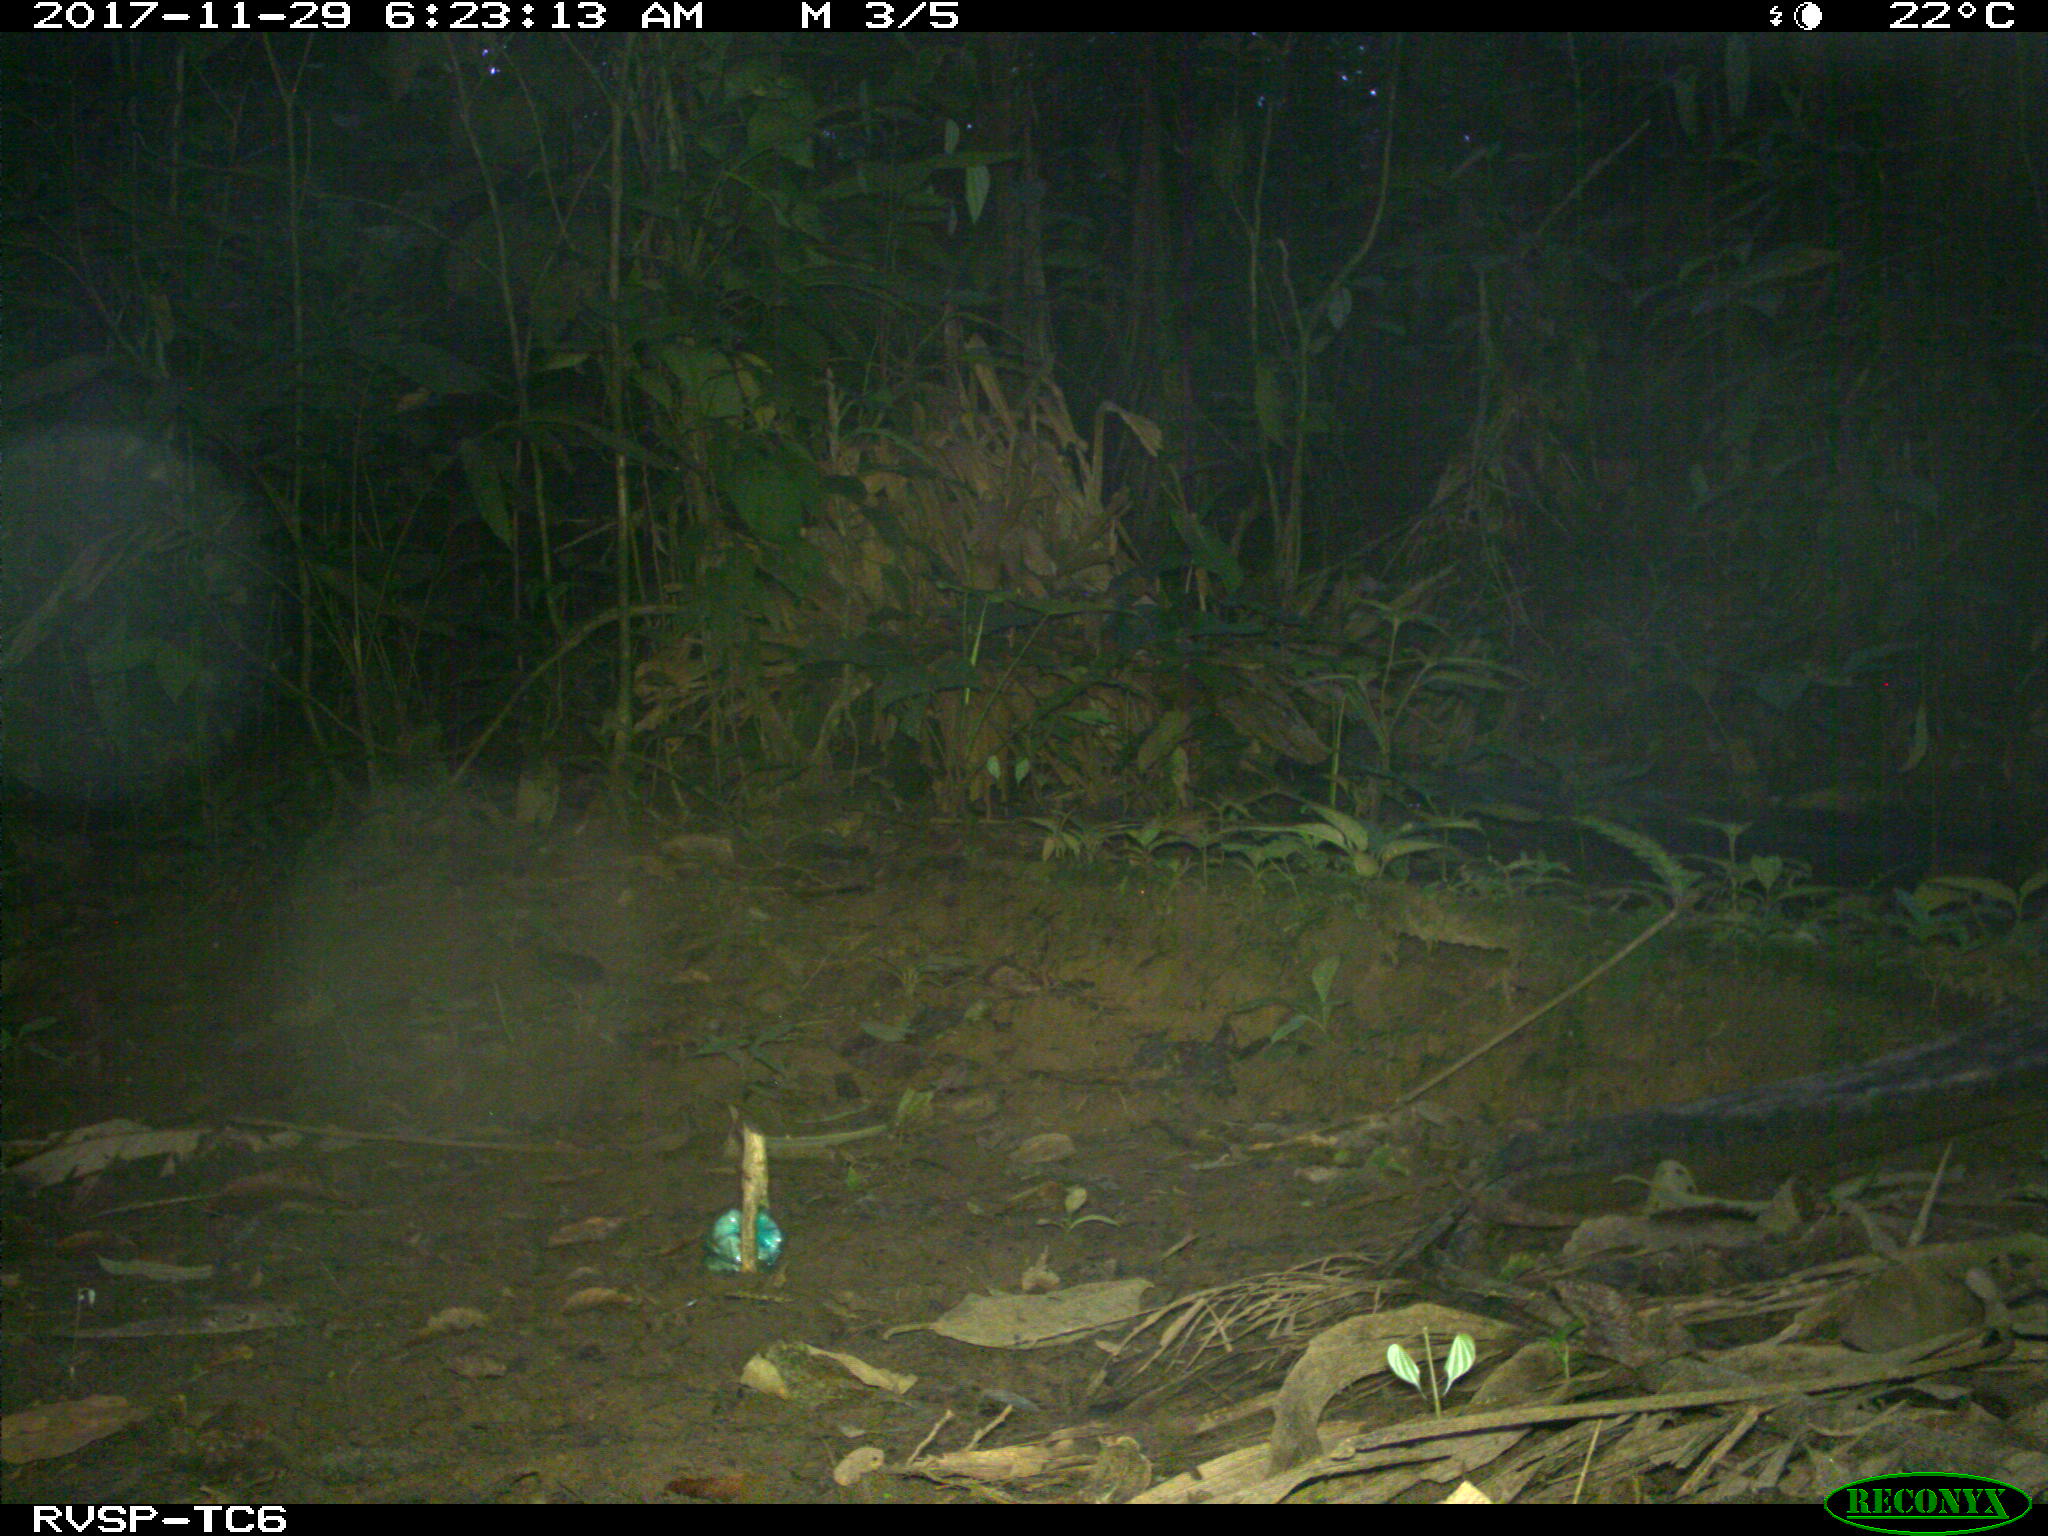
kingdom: Animalia
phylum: Chordata
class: Mammalia
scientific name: Mammalia
